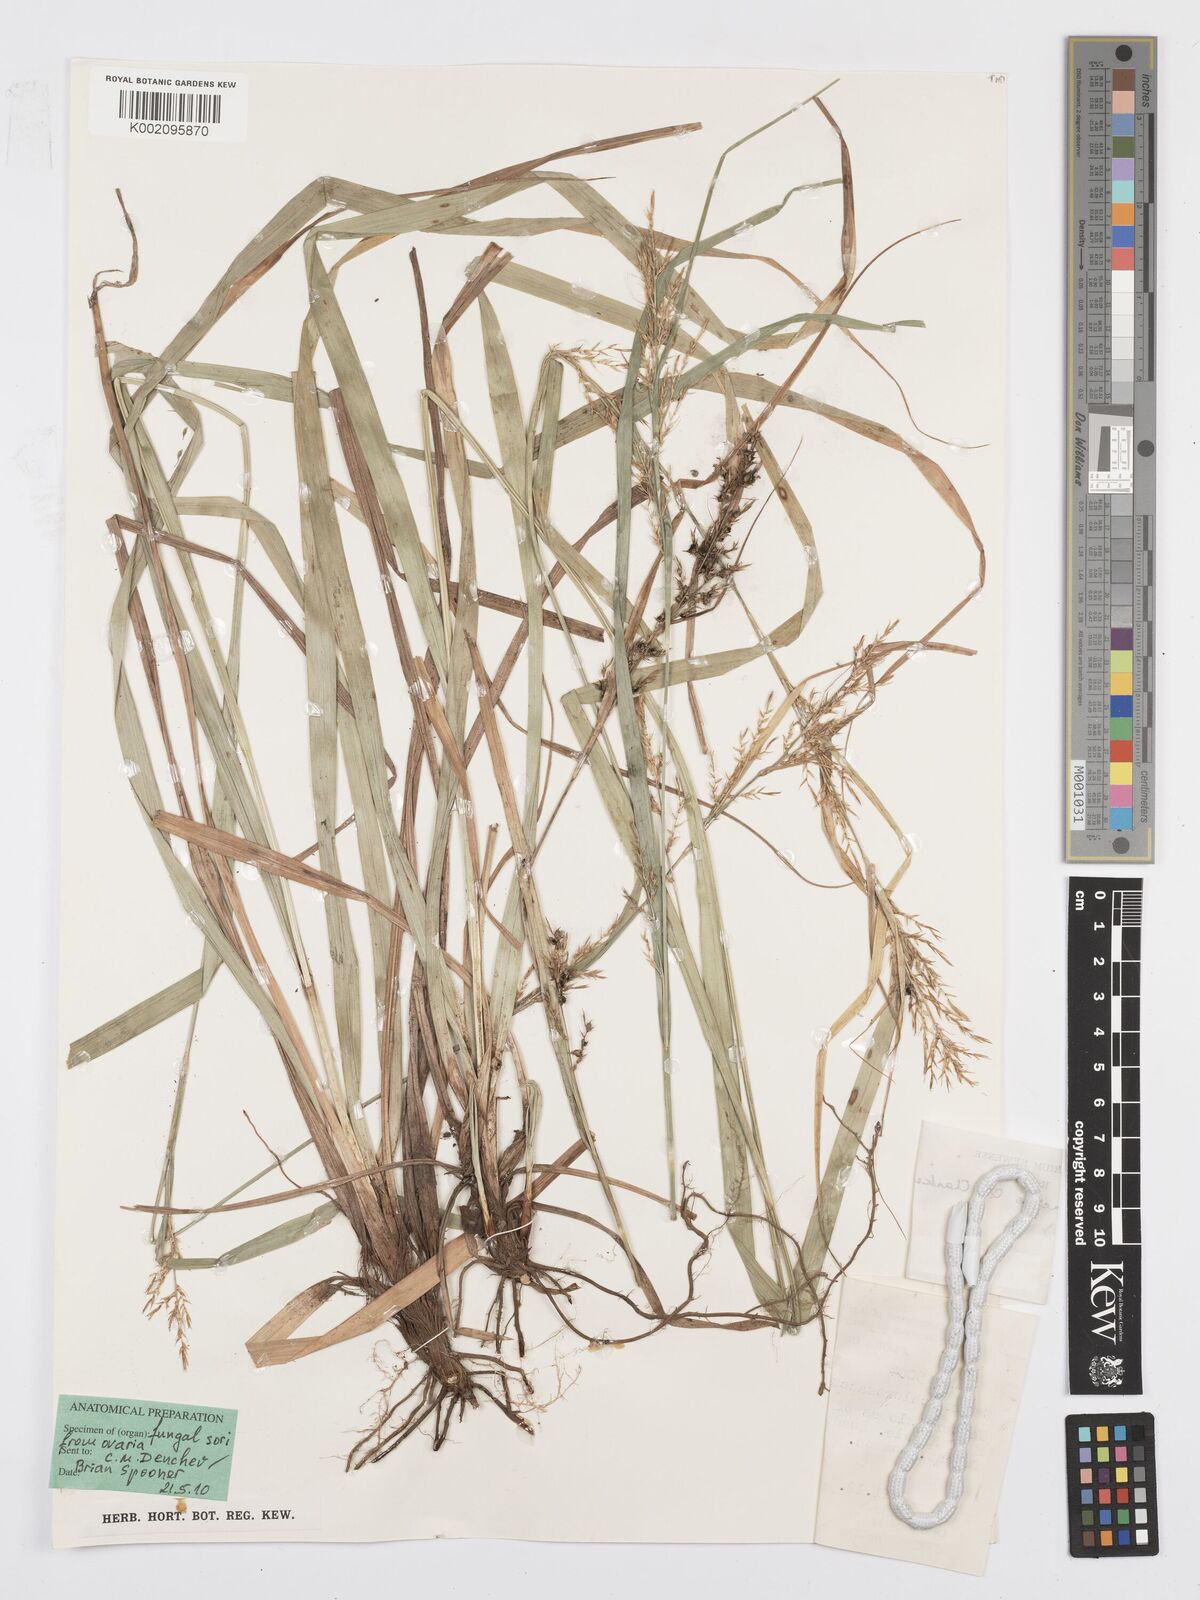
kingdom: Plantae
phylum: Tracheophyta
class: Liliopsida
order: Poales
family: Cyperaceae
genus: Carex
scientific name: Carex chlorosaccus
